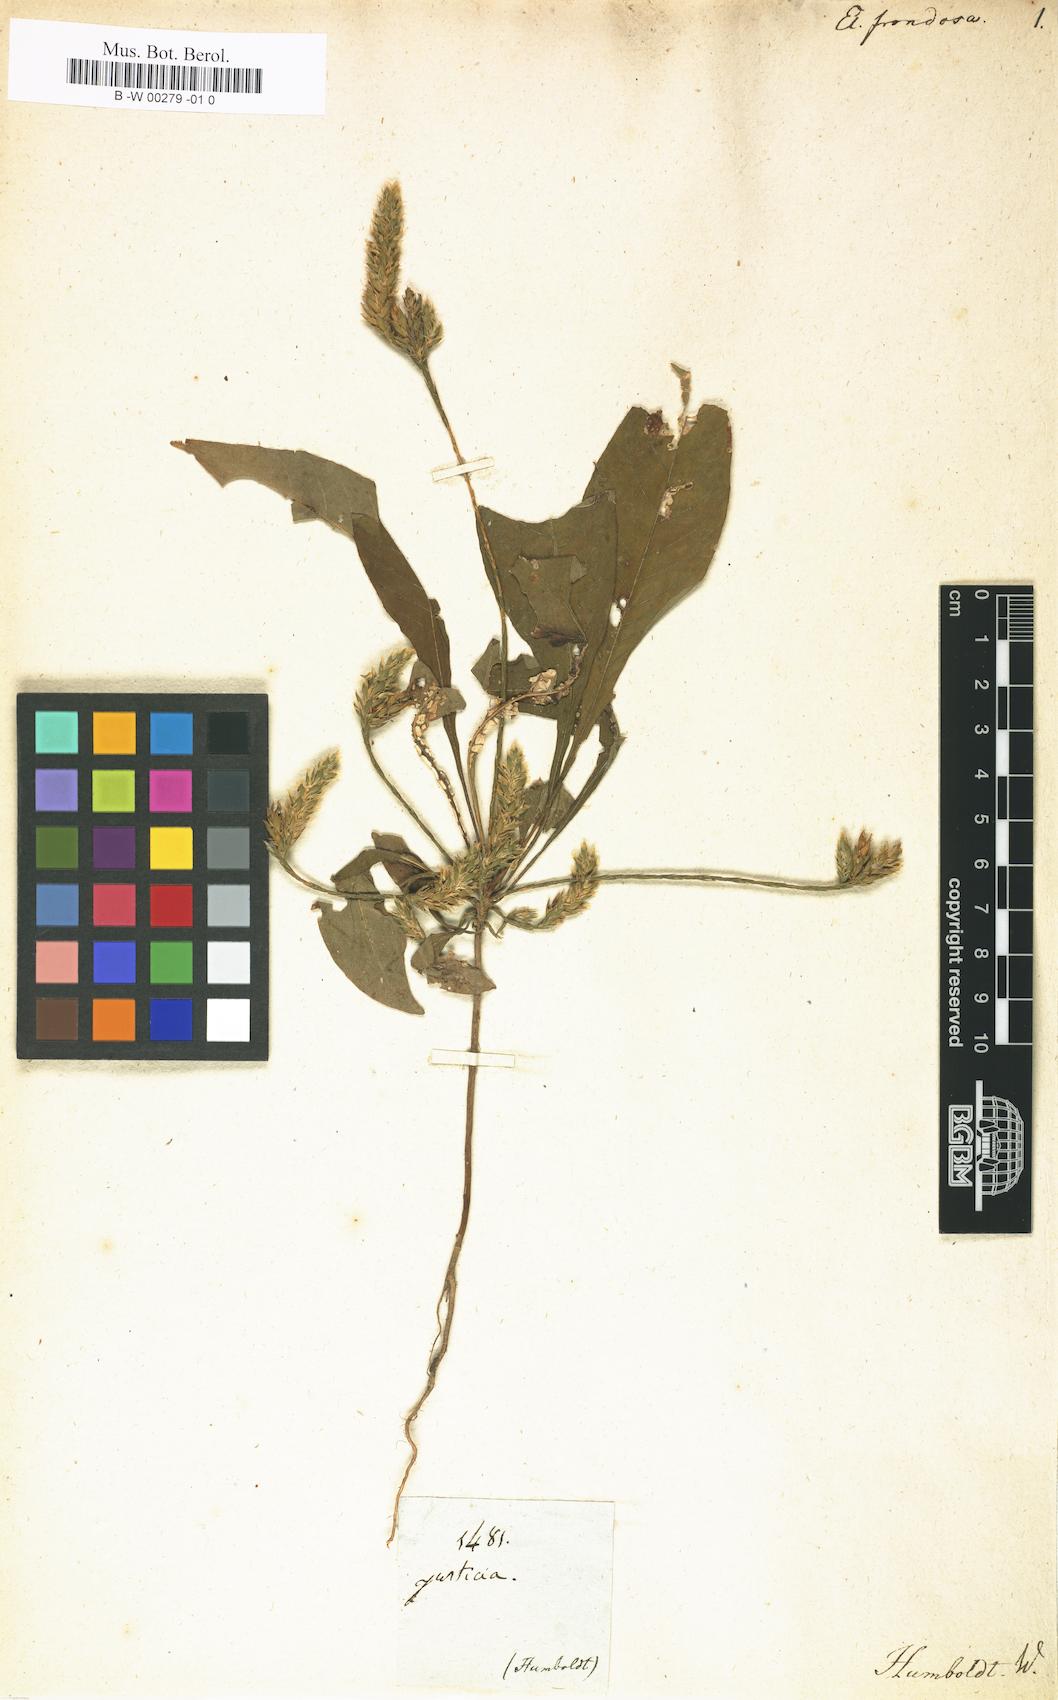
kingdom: Plantae
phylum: Tracheophyta
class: Magnoliopsida
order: Lamiales
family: Acanthaceae
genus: Elytraria
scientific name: Elytraria imbricata
